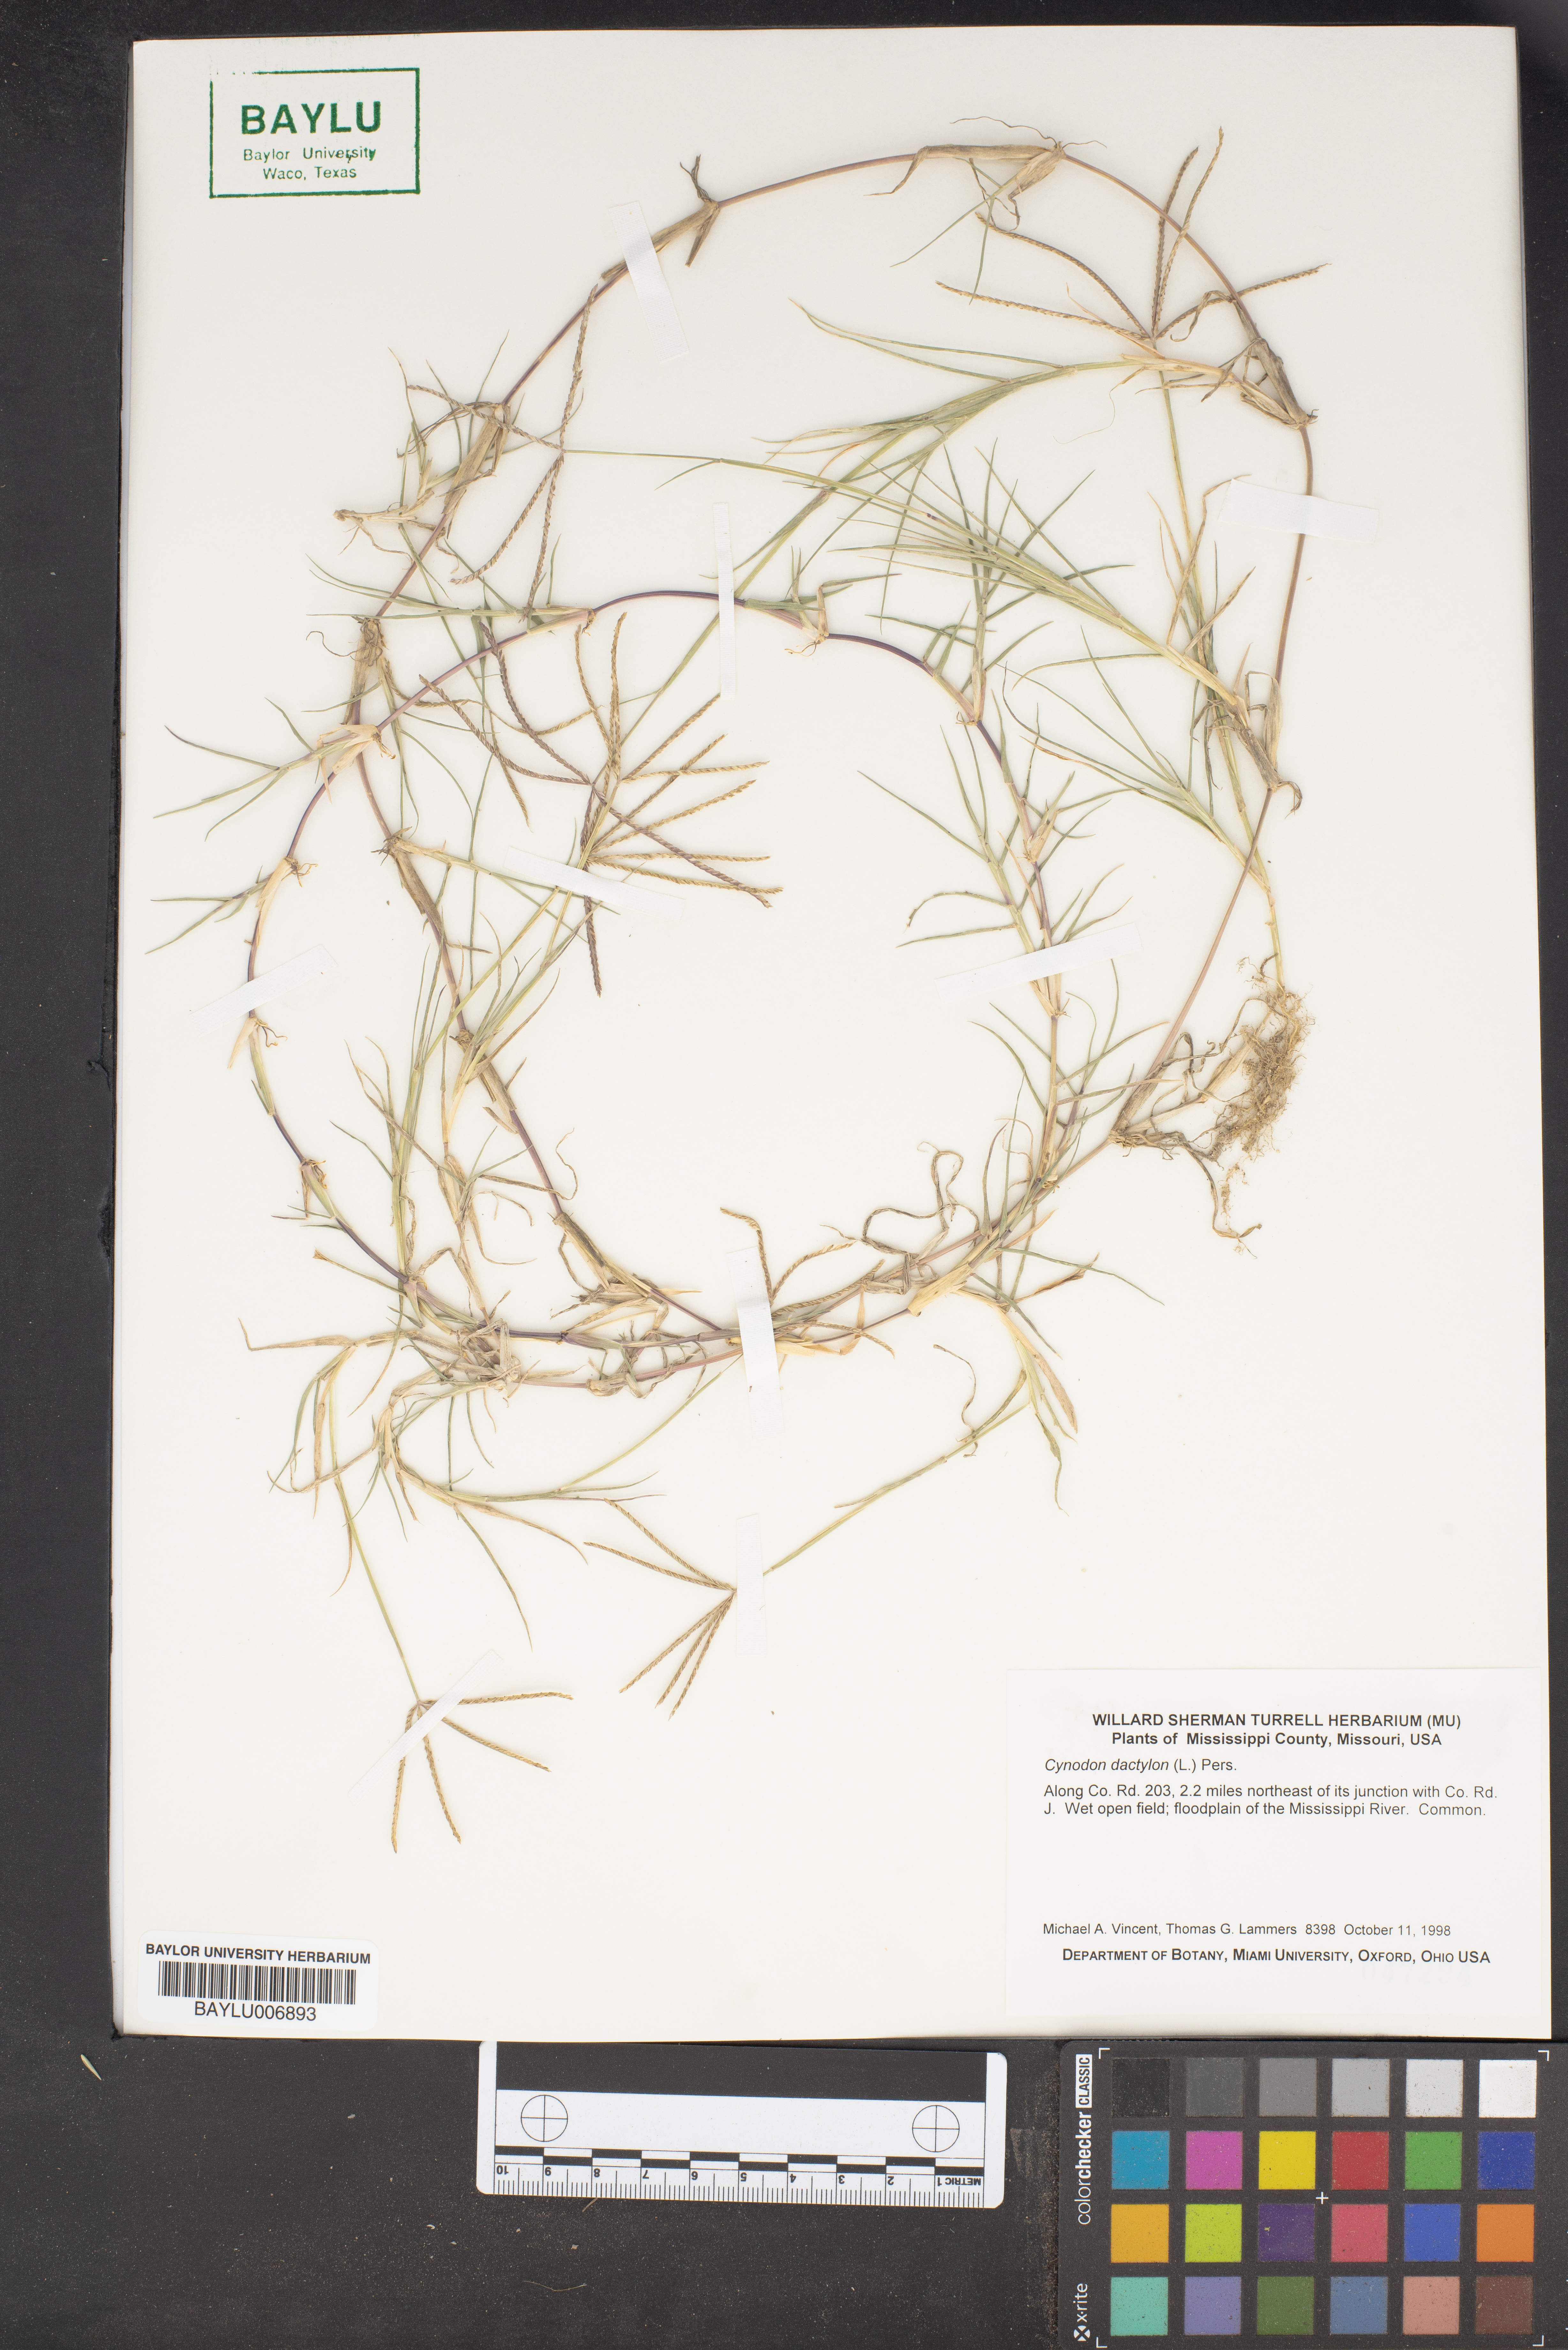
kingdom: Plantae
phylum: Tracheophyta
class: Liliopsida
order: Poales
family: Poaceae
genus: Cynodon
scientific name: Cynodon dactylon
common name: Bermuda grass
